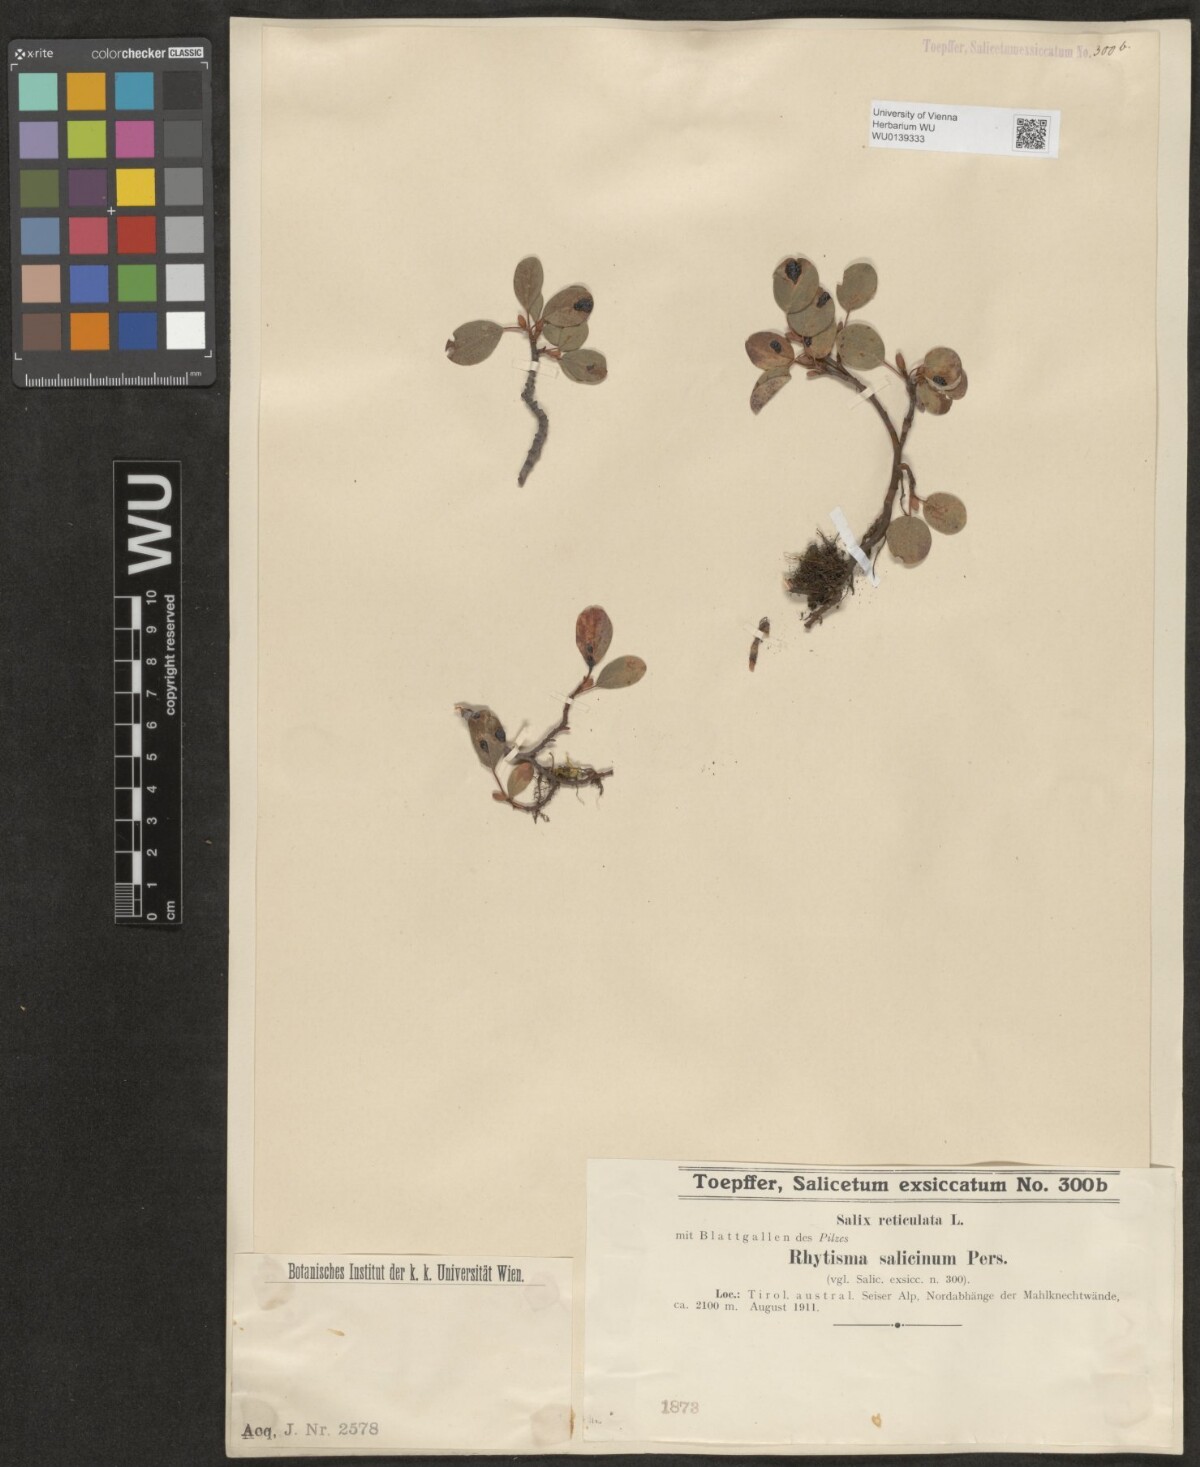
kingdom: Plantae
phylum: Tracheophyta
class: Magnoliopsida
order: Malpighiales
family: Salicaceae
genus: Salix
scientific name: Salix reticulata
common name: Net-leaved willow
